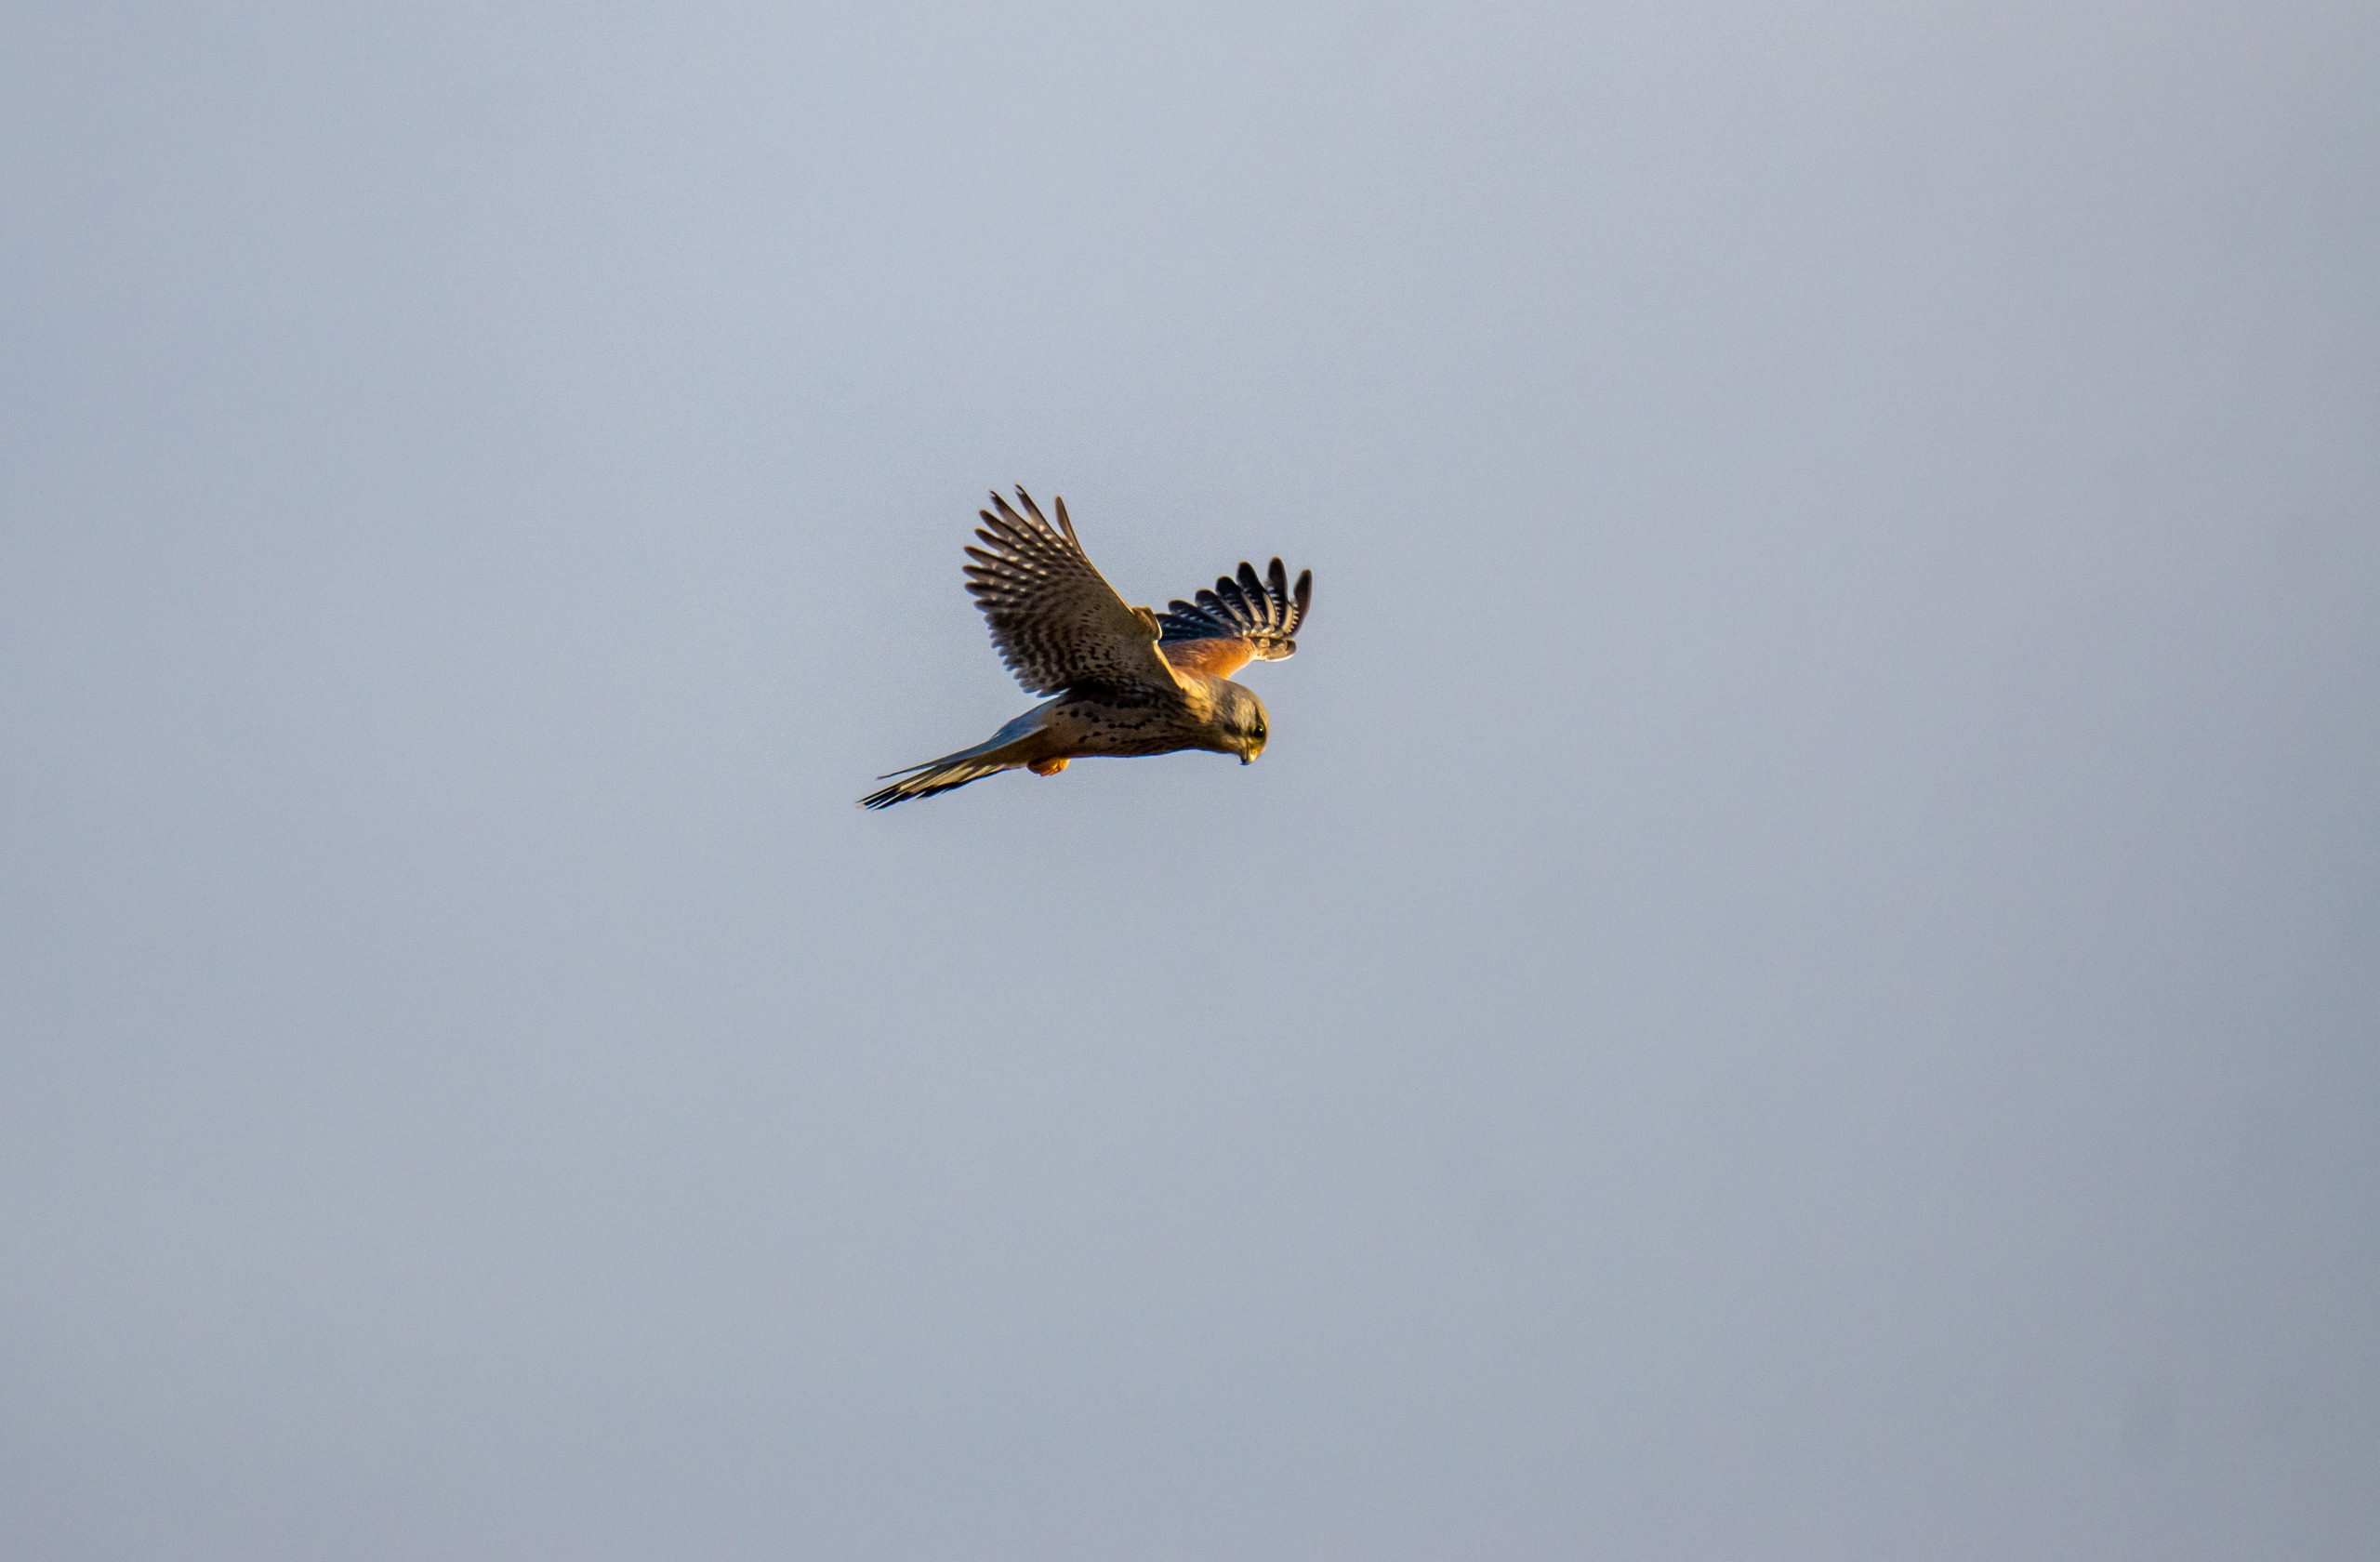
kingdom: Animalia
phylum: Chordata
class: Aves
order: Falconiformes
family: Falconidae
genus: Falco
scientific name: Falco tinnunculus
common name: Tårnfalk
